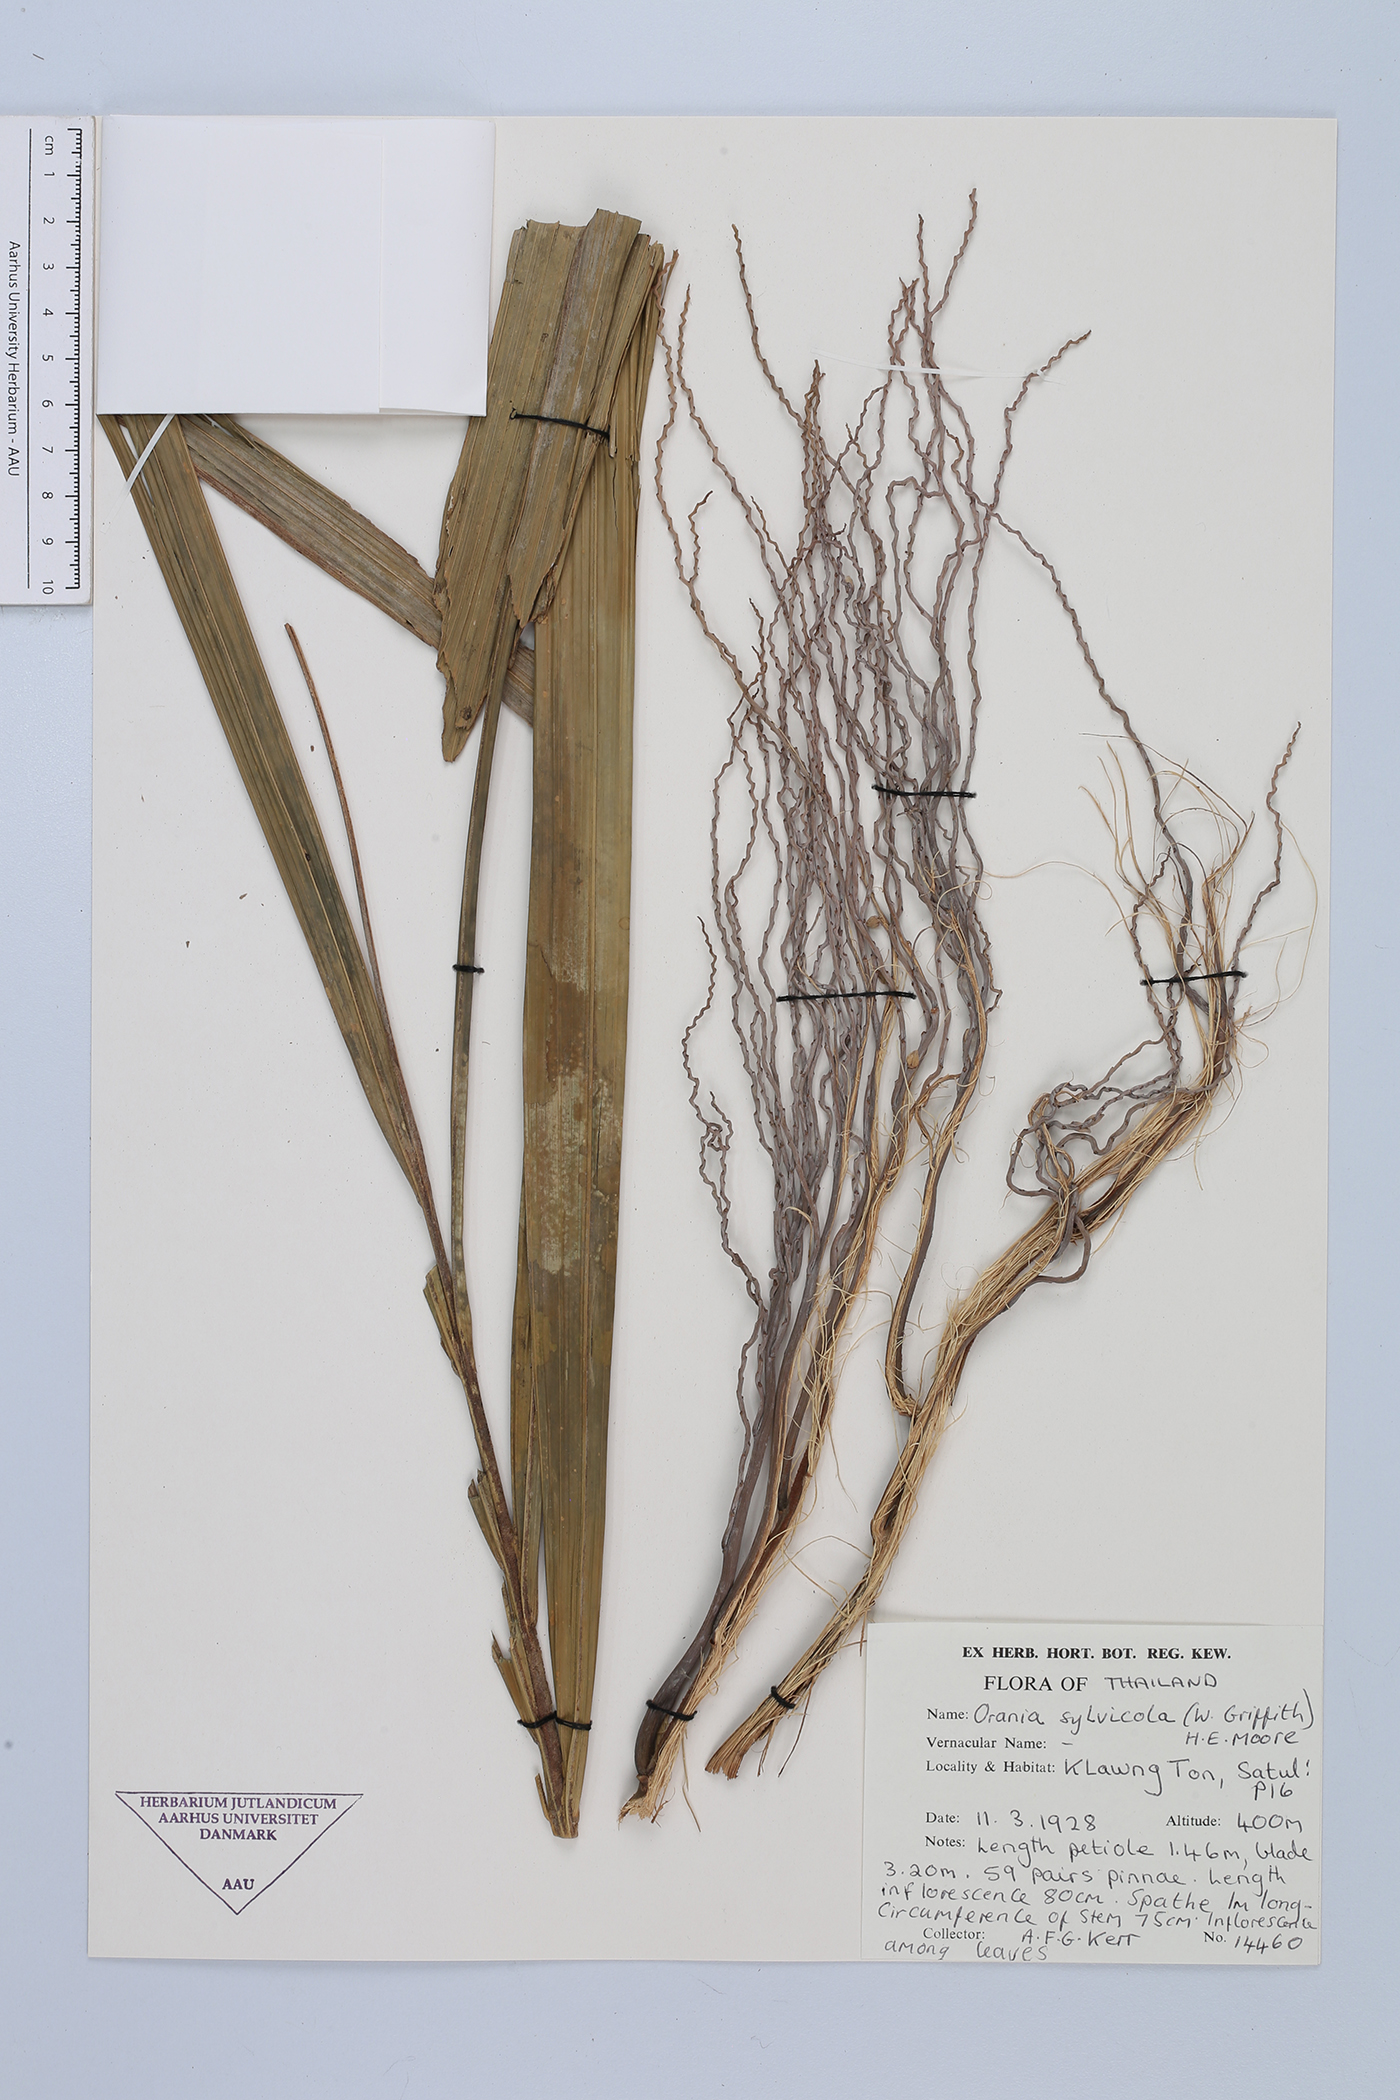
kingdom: Plantae
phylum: Tracheophyta
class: Liliopsida
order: Arecales
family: Arecaceae
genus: Orania
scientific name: Orania sylvicola
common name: Forest palm
